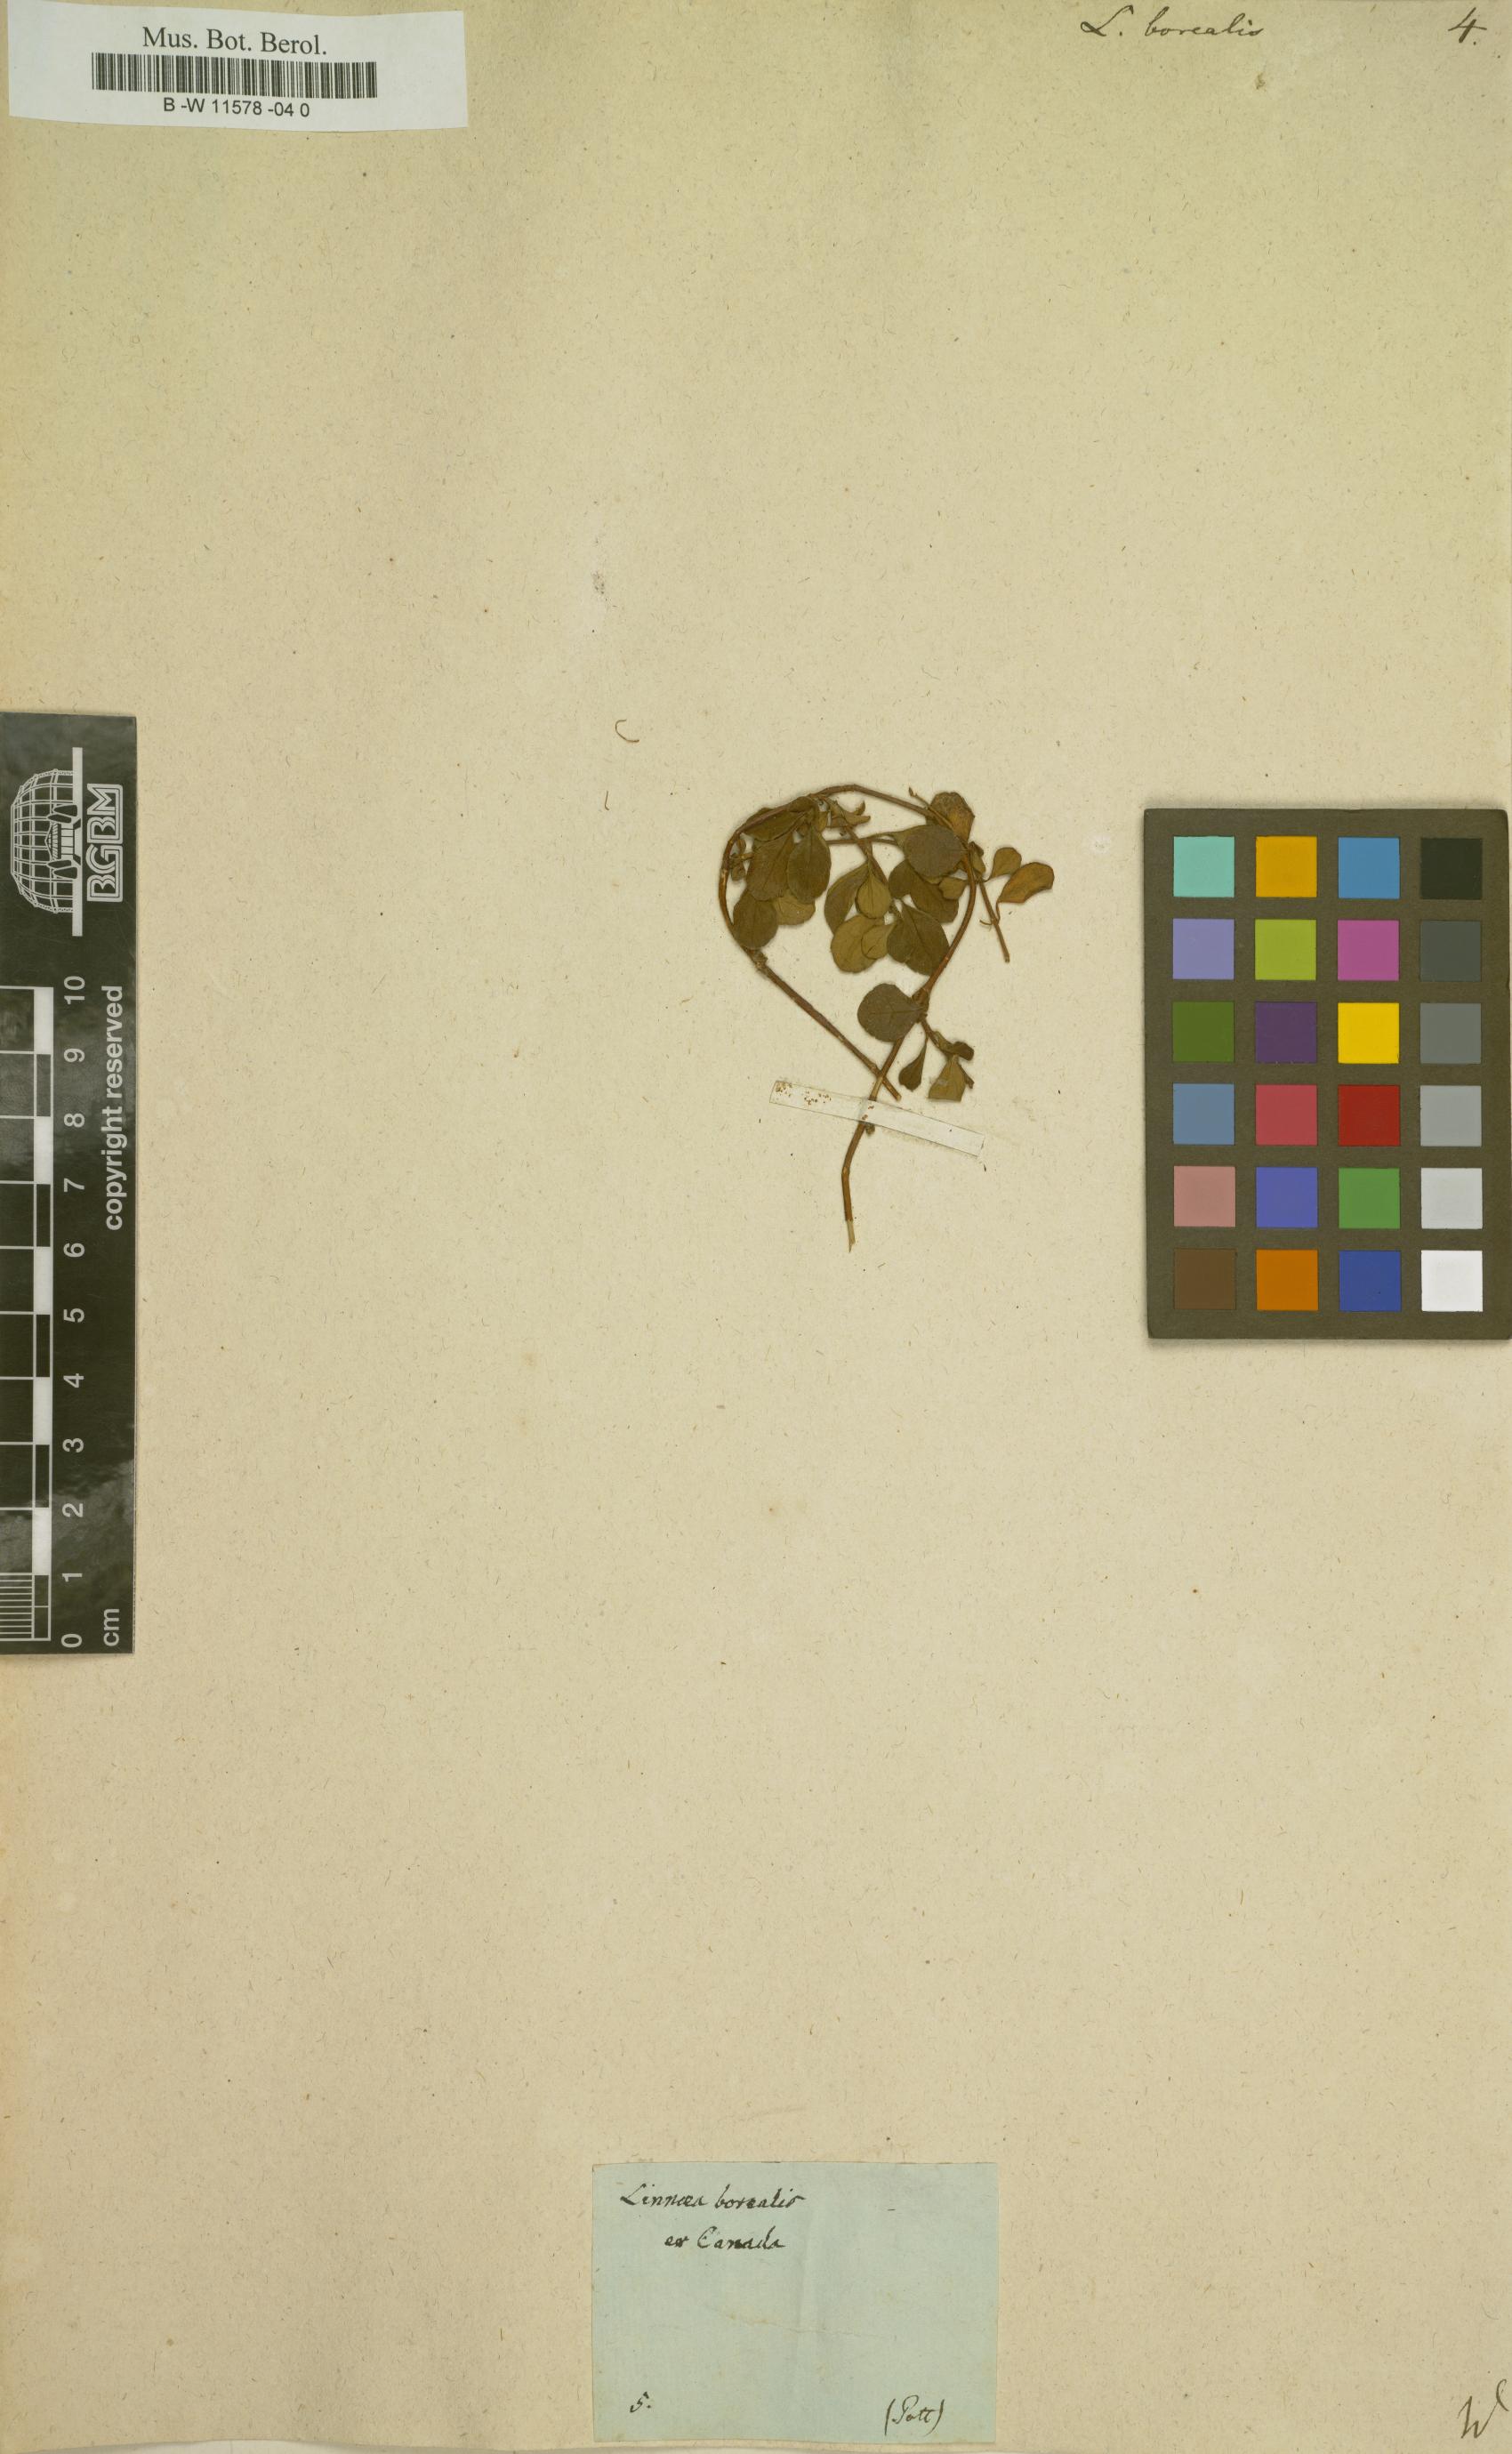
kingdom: Plantae
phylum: Tracheophyta
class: Magnoliopsida
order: Dipsacales
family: Caprifoliaceae
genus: Linnaea
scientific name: Linnaea borealis
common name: Twinflower
